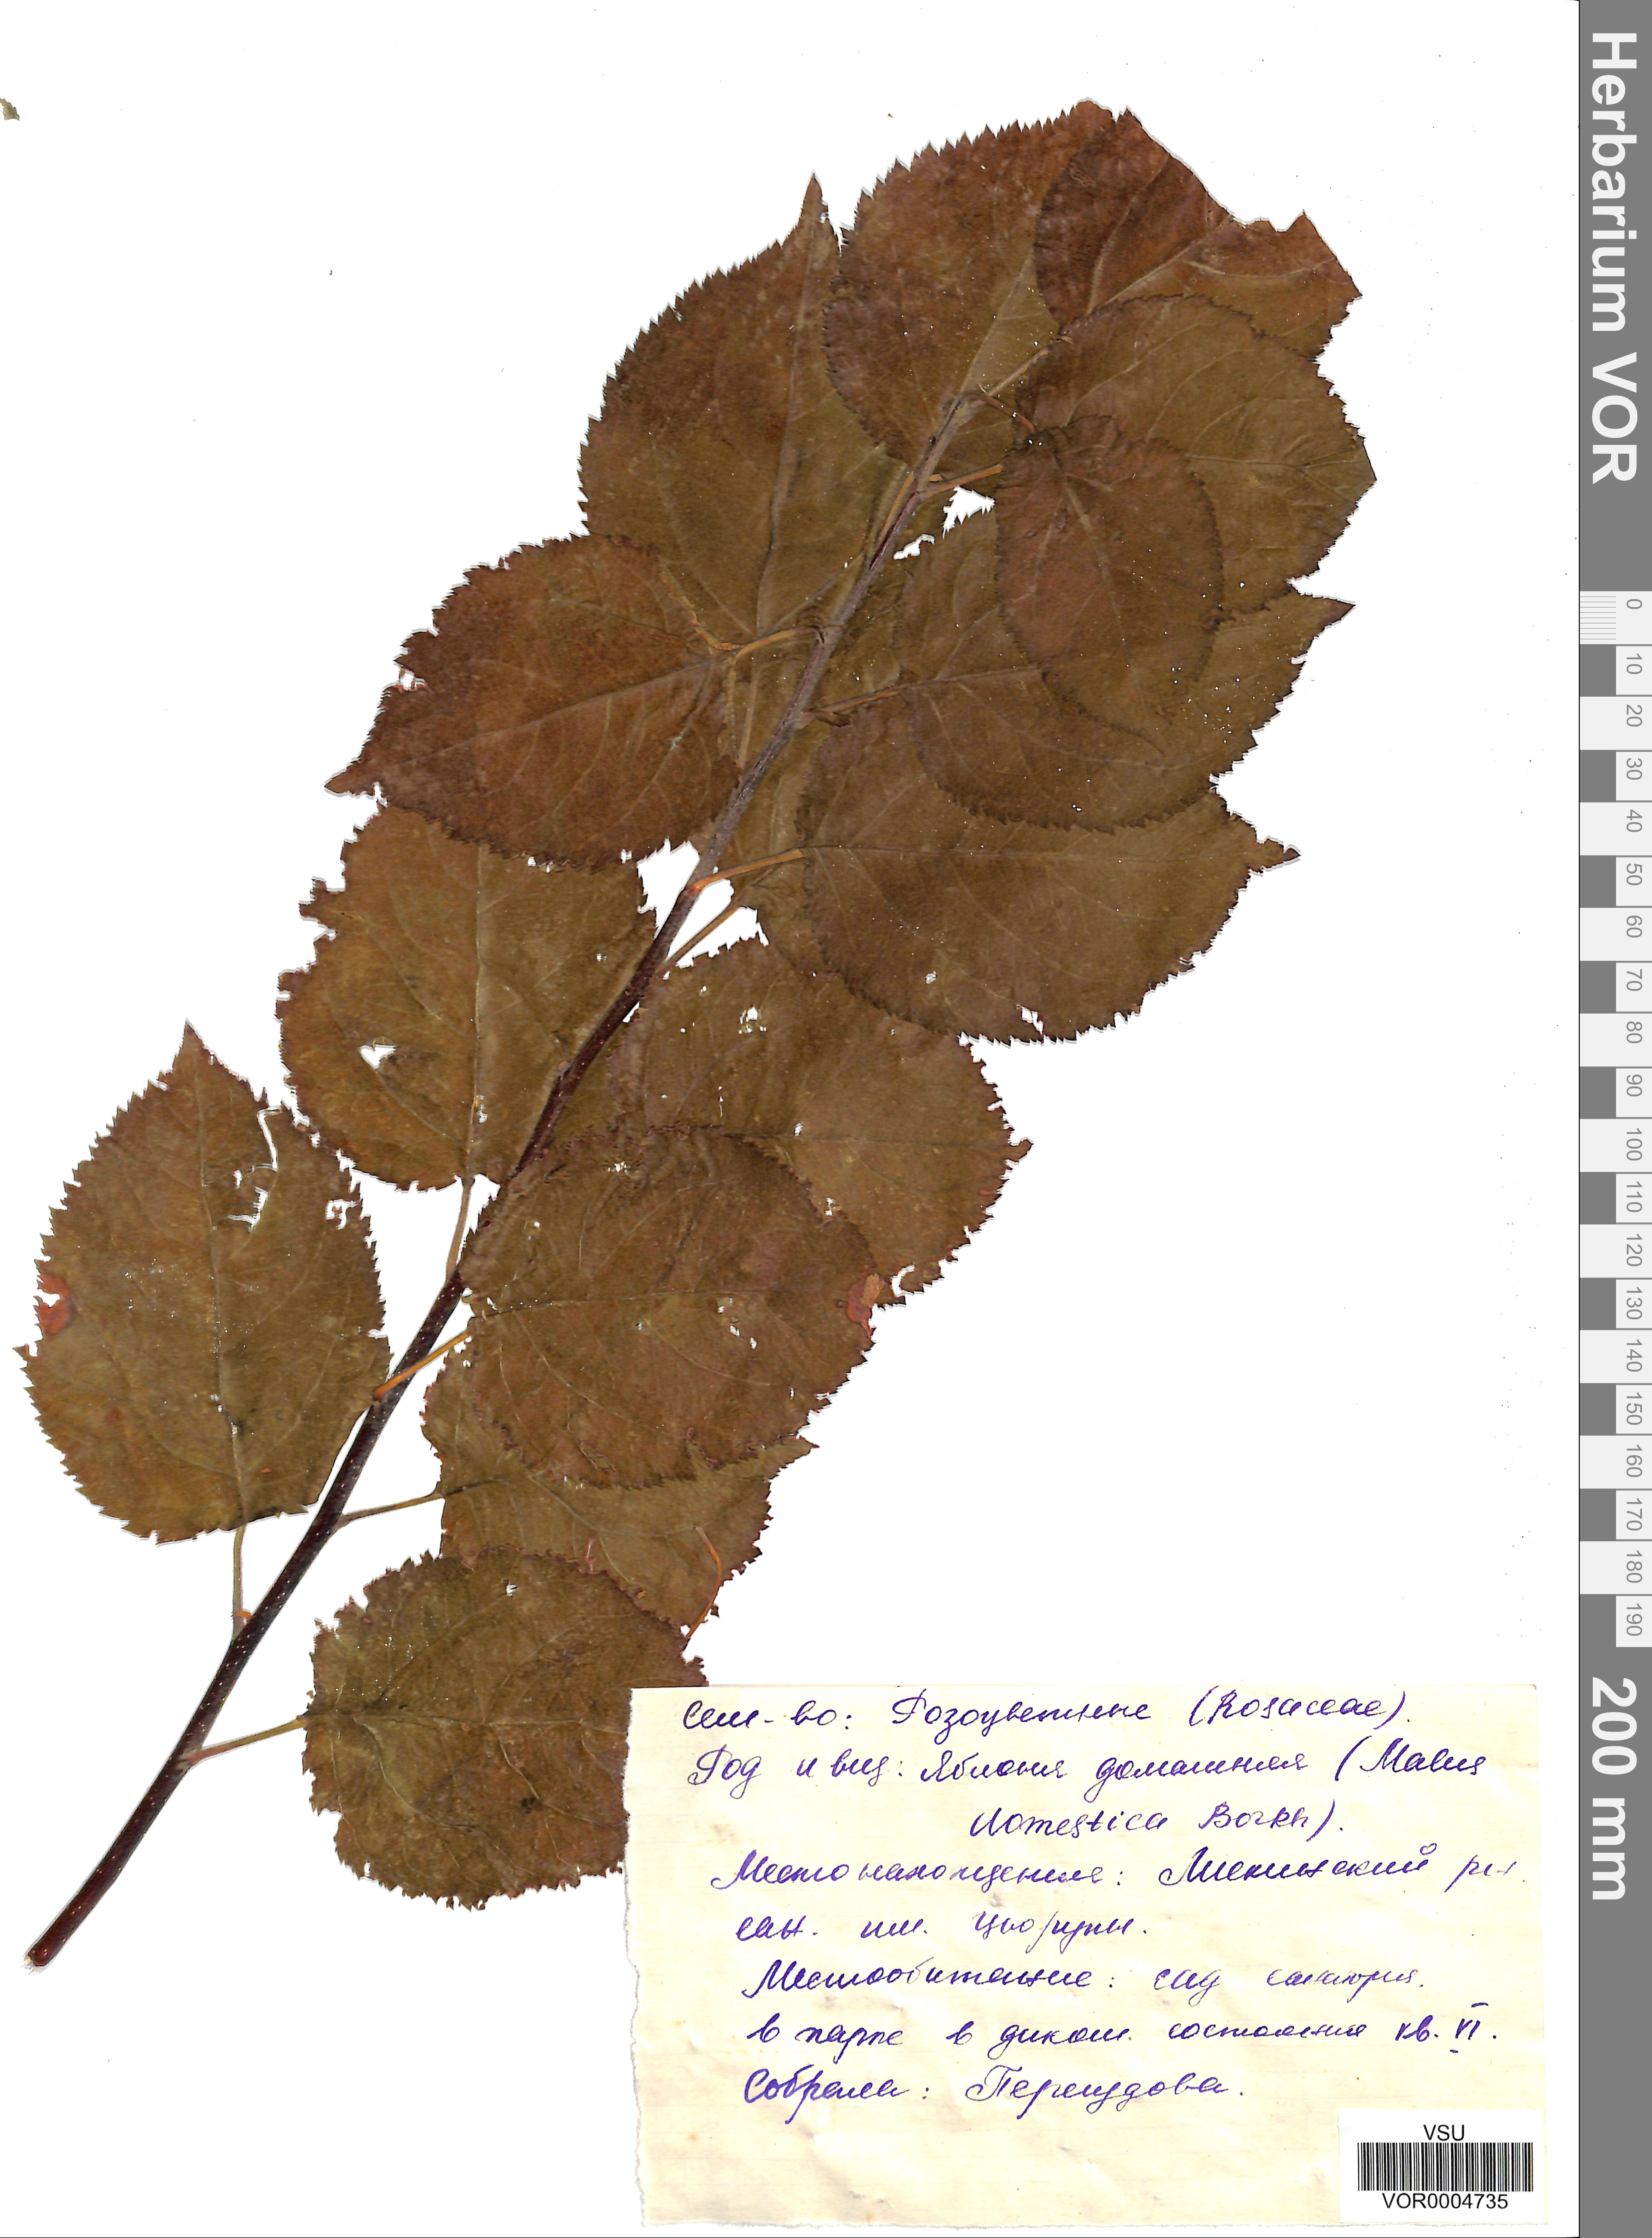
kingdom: Plantae
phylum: Tracheophyta
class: Magnoliopsida
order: Rosales
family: Rosaceae
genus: Malus
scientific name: Malus domestica
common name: Apple
